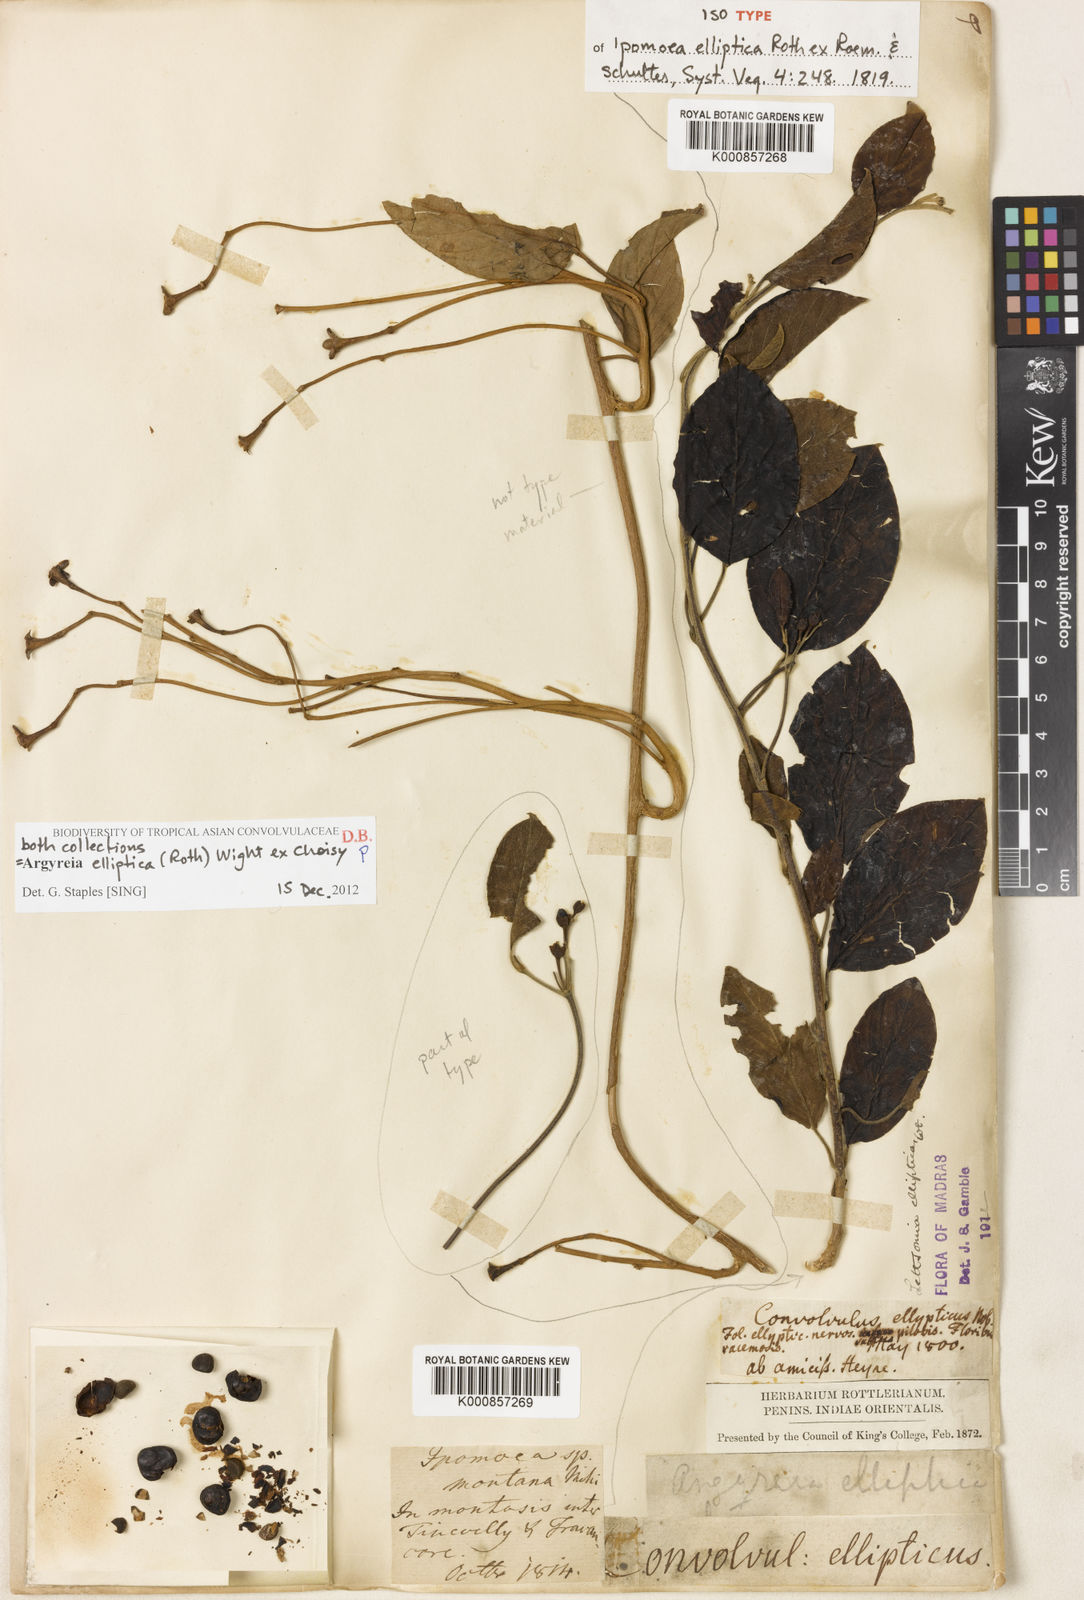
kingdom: Plantae
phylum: Tracheophyta
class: Magnoliopsida
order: Solanales
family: Convolvulaceae
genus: Argyreia
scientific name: Argyreia elliptica
